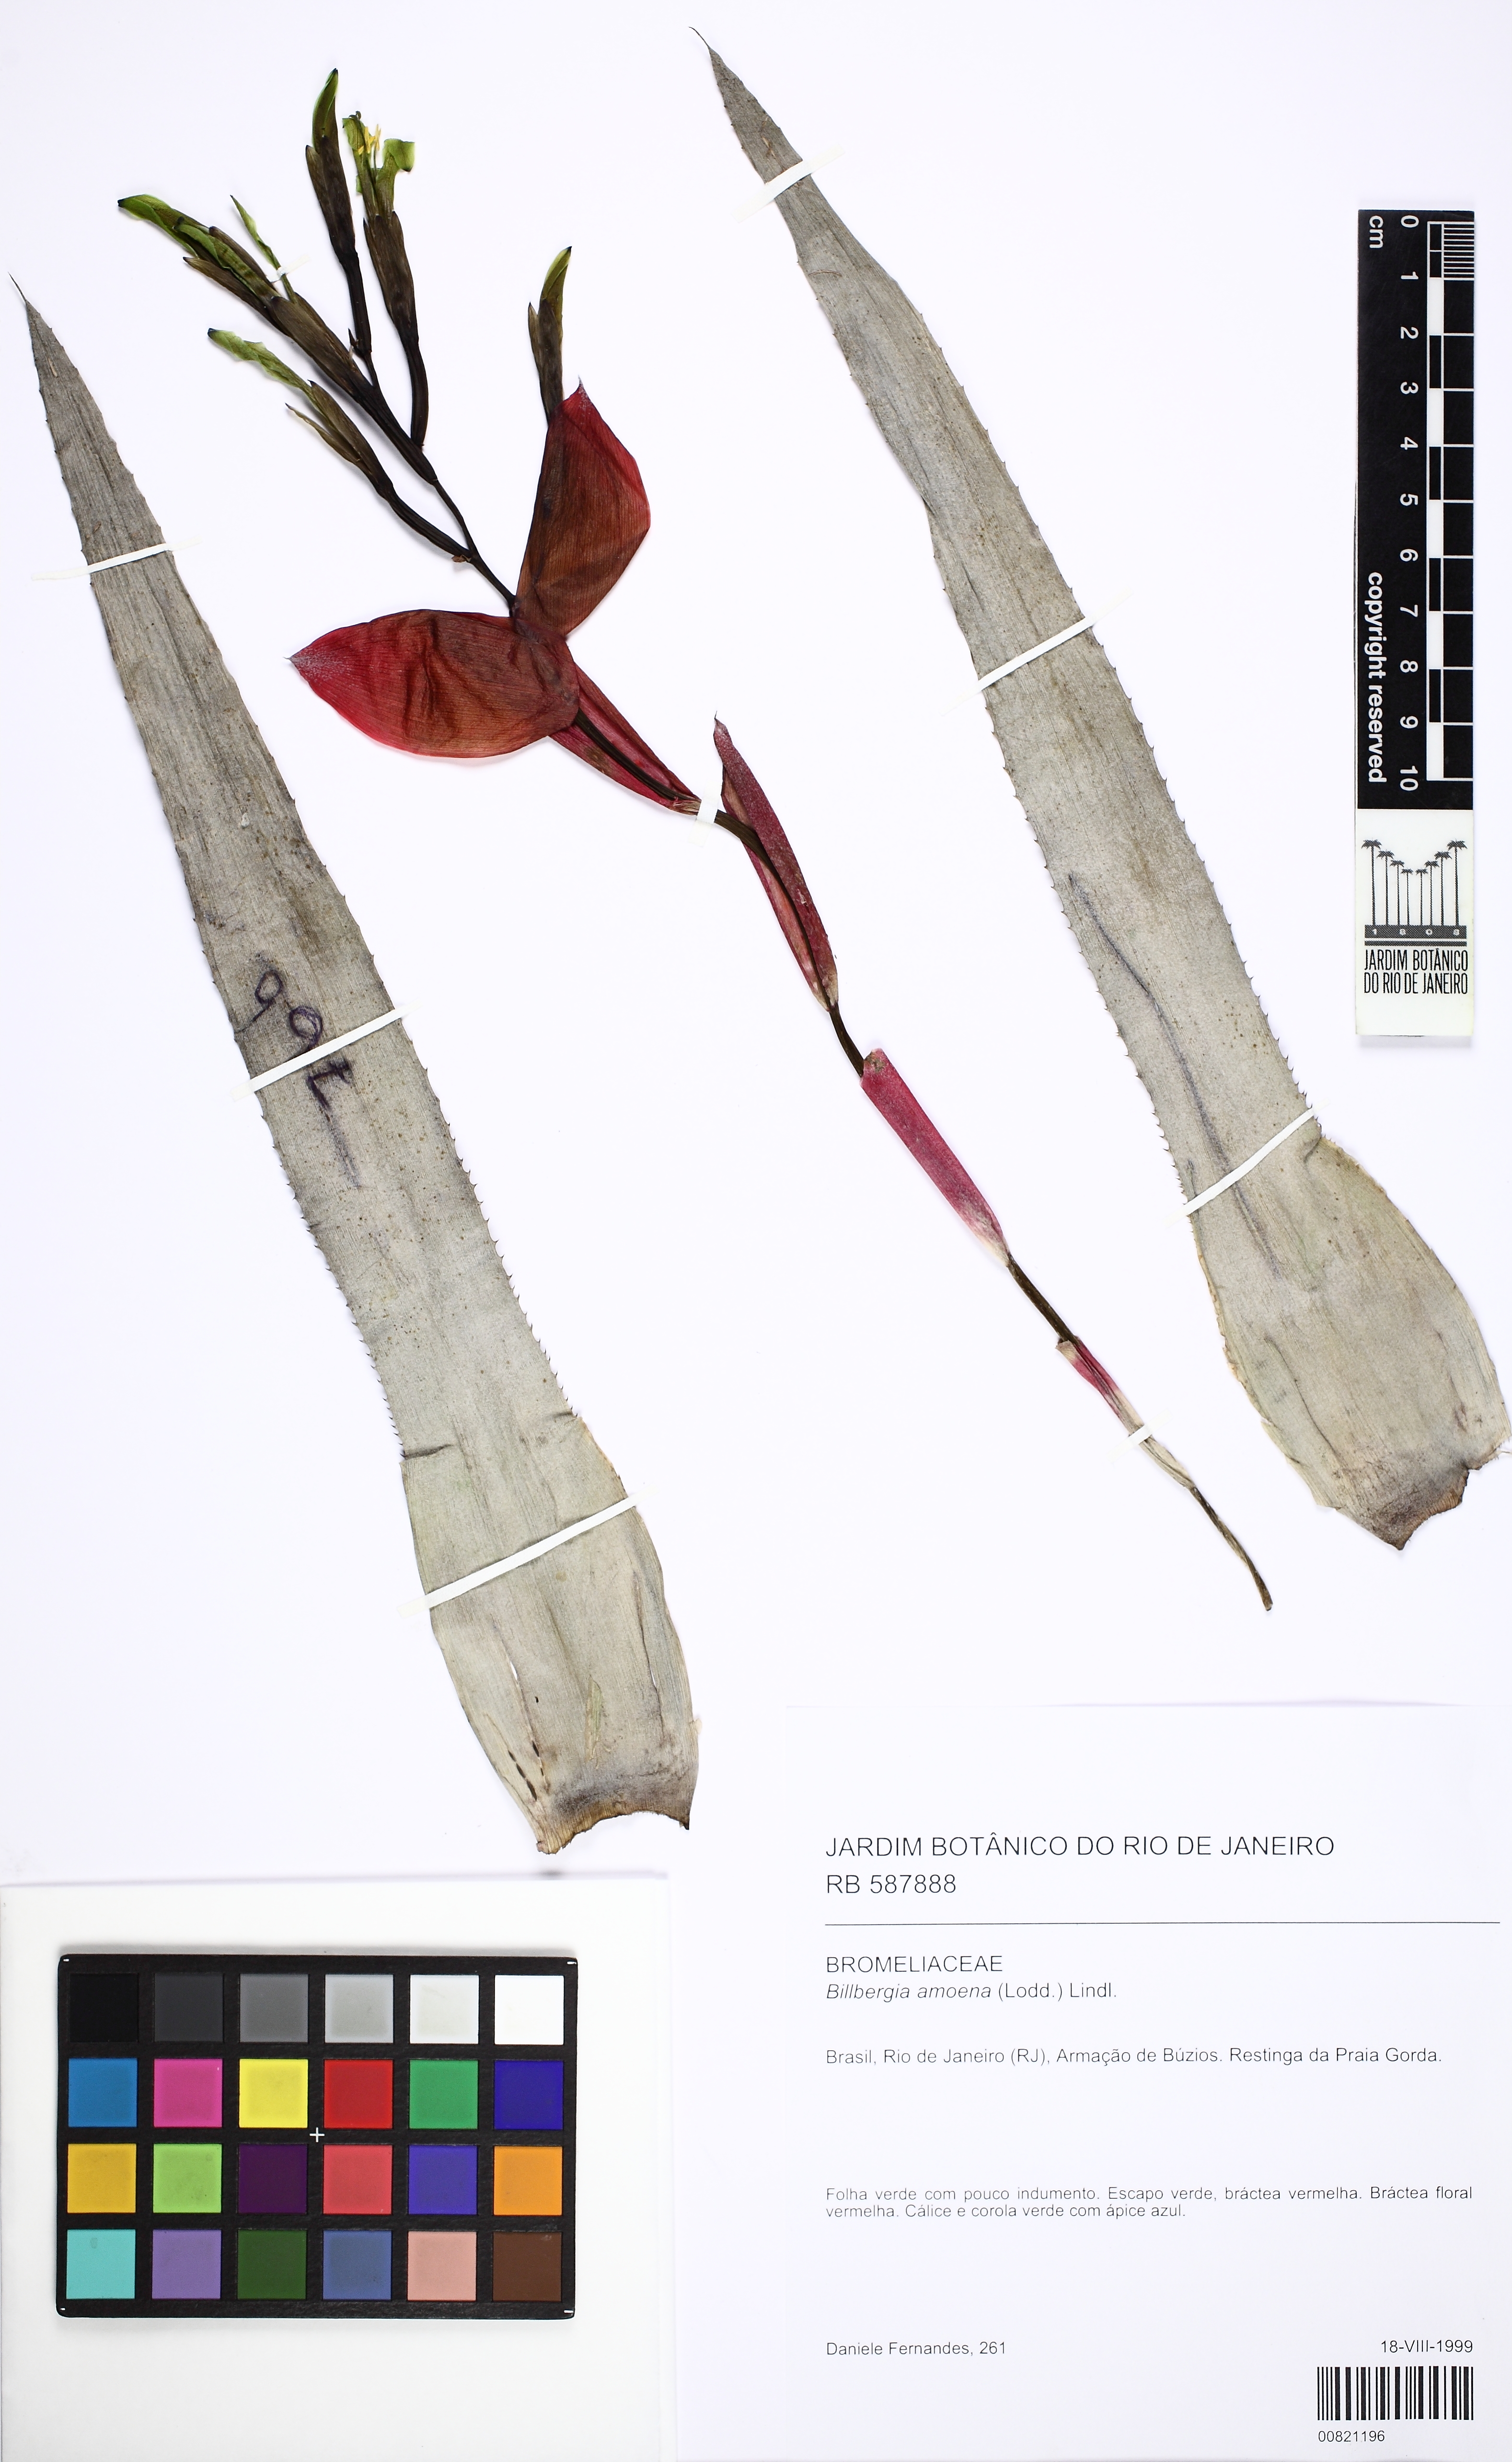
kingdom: Plantae
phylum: Tracheophyta
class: Liliopsida
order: Poales
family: Bromeliaceae
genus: Billbergia
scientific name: Billbergia amoena
